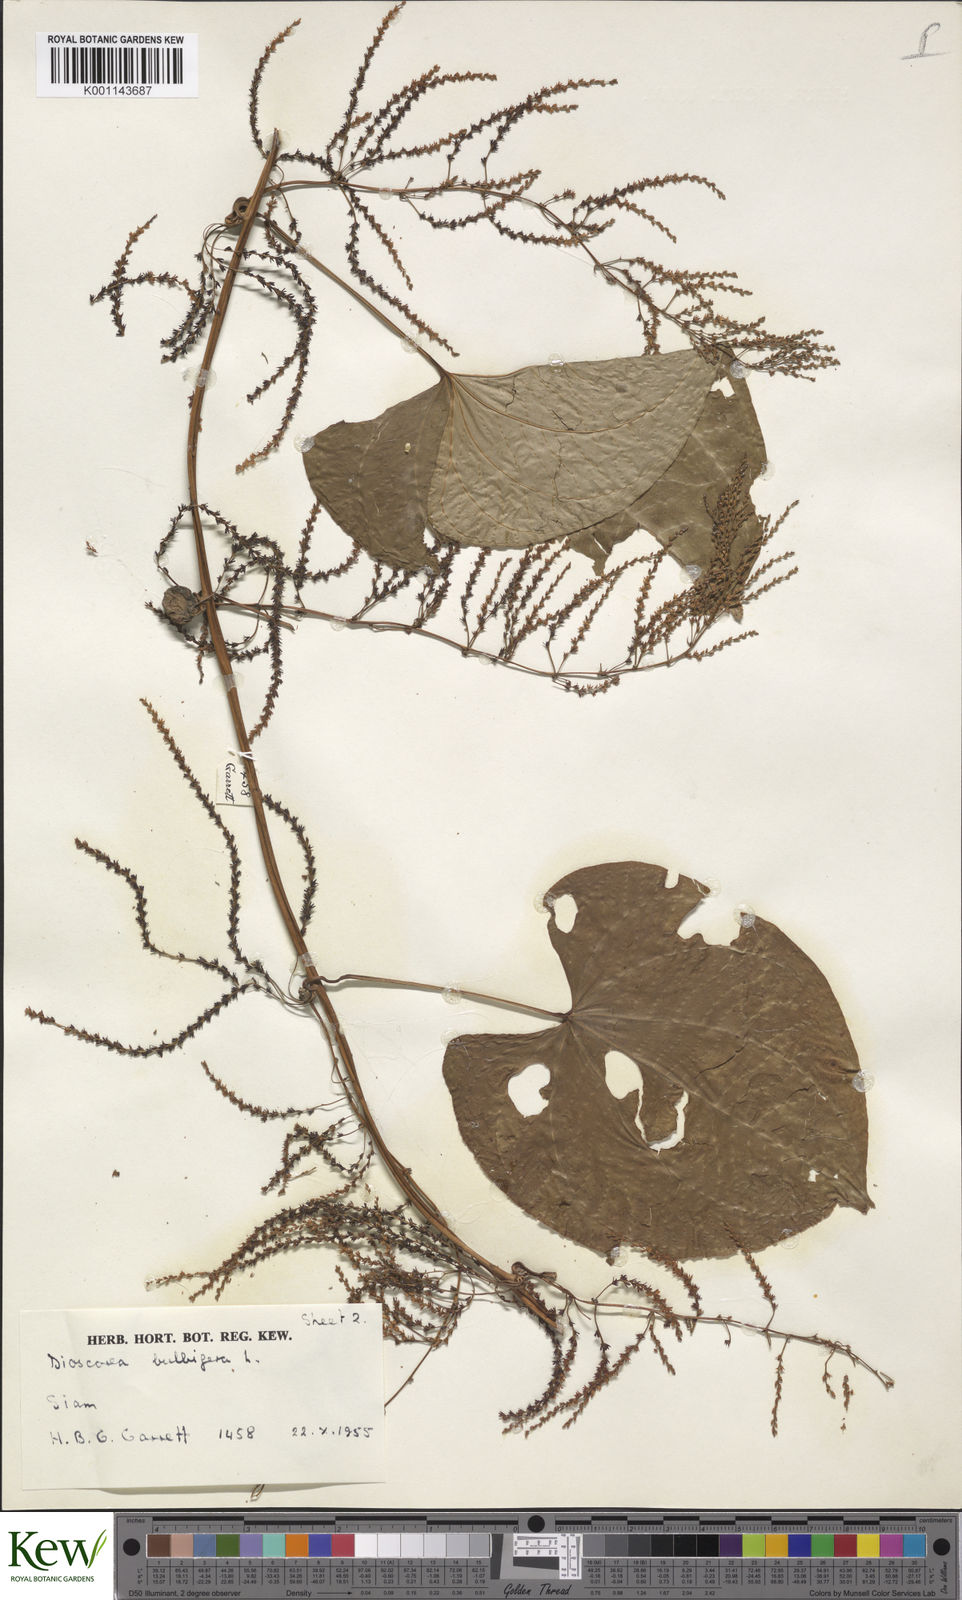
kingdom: Plantae
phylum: Tracheophyta
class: Liliopsida
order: Dioscoreales
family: Dioscoreaceae
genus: Dioscorea
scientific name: Dioscorea bulbifera
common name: Air yam
